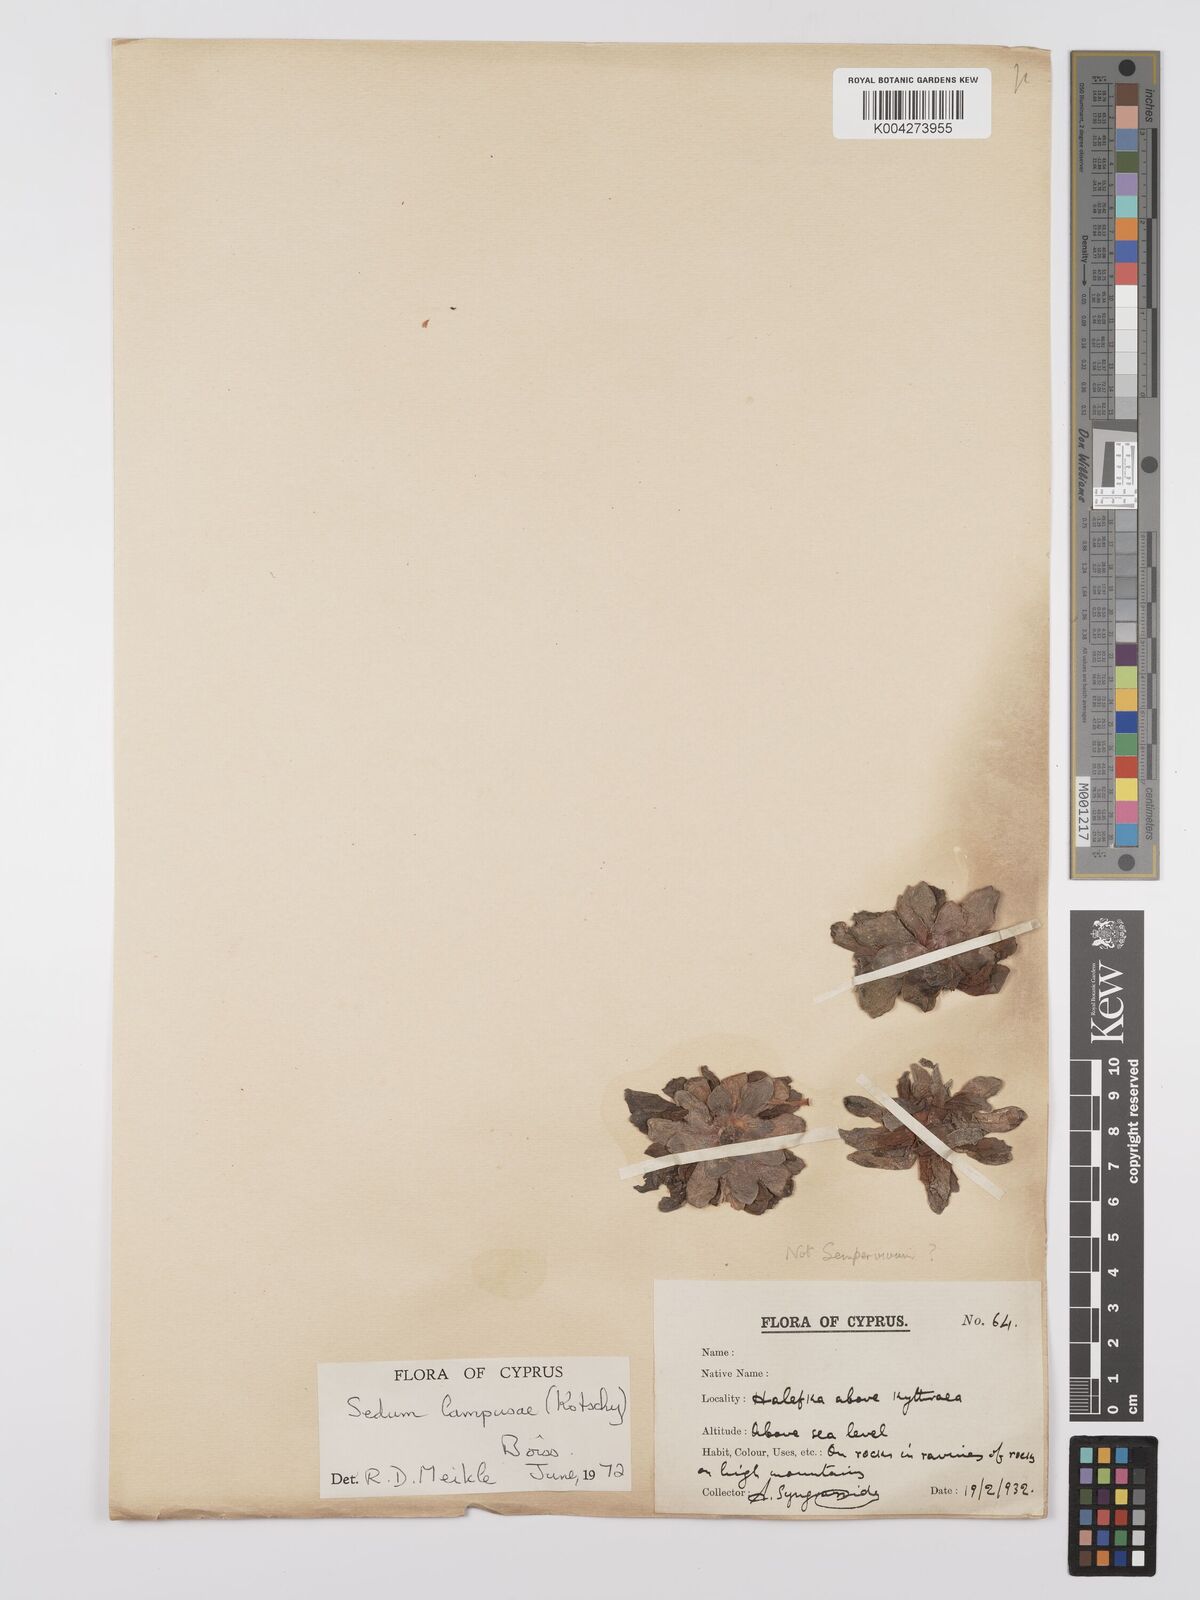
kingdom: Plantae
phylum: Tracheophyta
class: Magnoliopsida
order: Saxifragales
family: Crassulaceae
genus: Sedum
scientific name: Sedum lampusae
